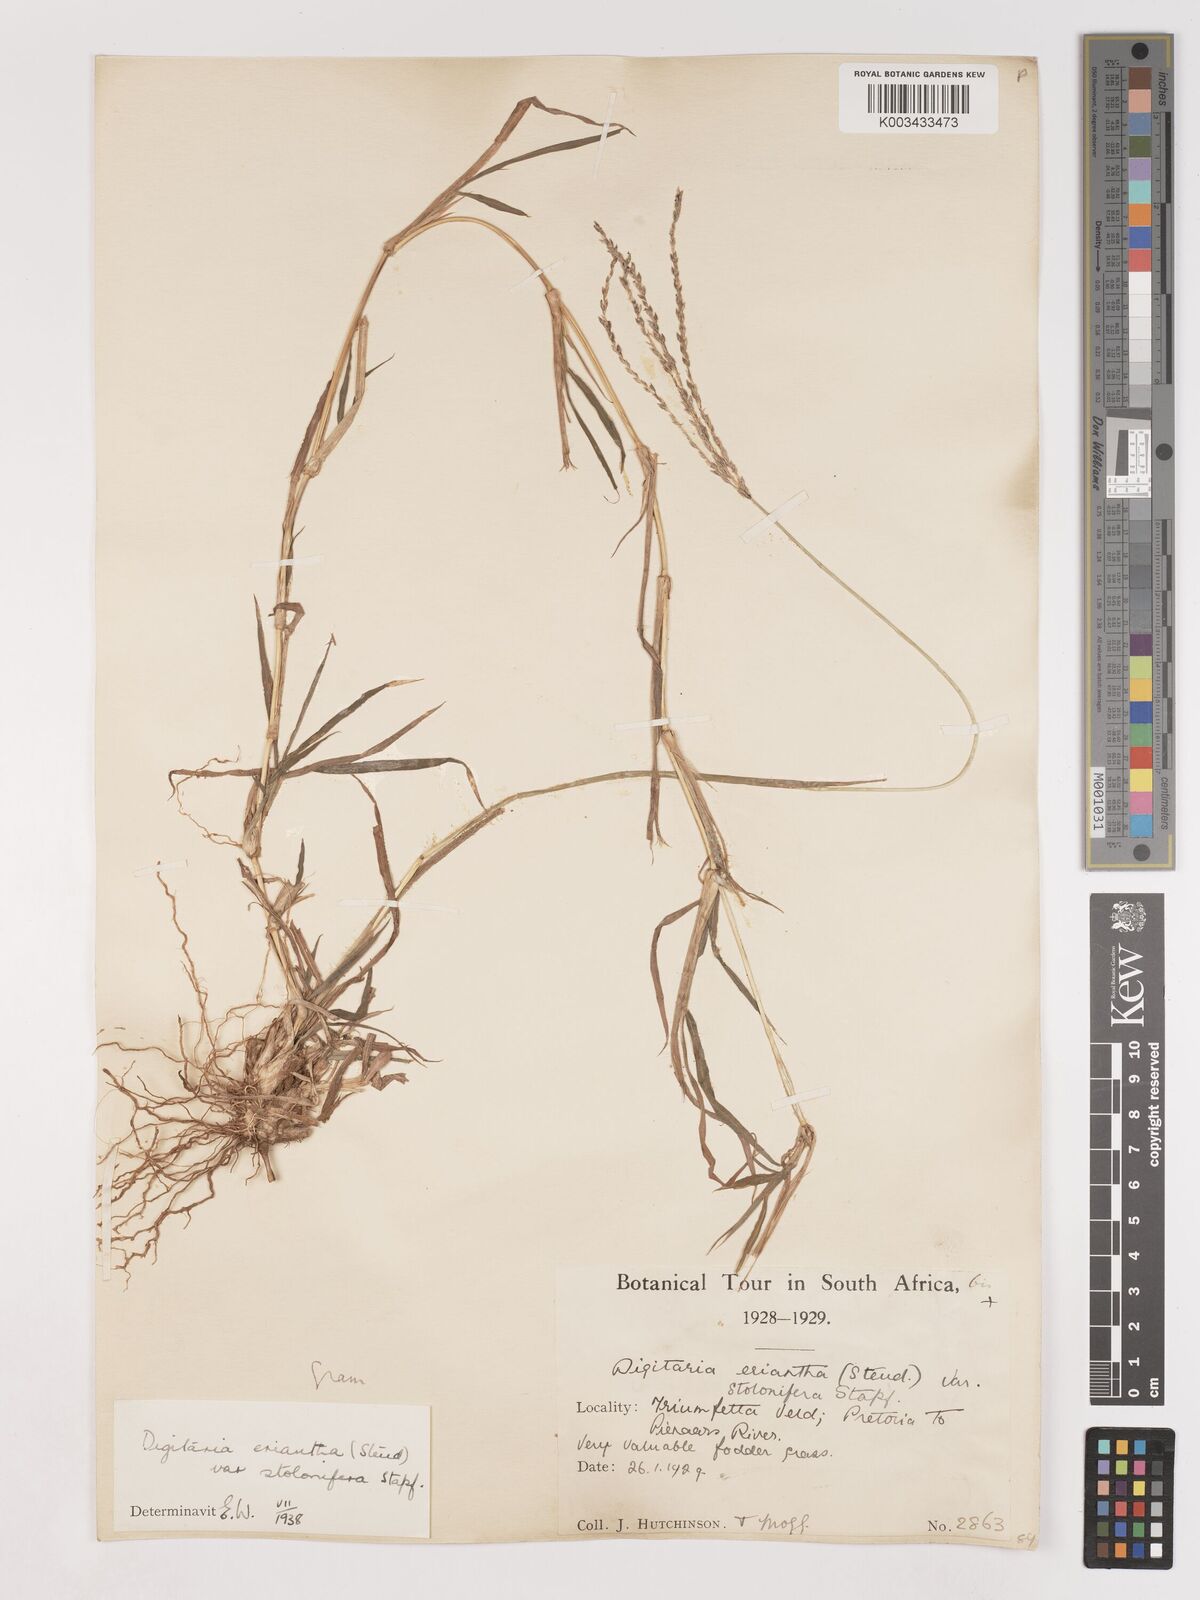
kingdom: Plantae
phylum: Tracheophyta
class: Liliopsida
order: Poales
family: Poaceae
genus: Digitaria
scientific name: Digitaria eriantha
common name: Digitgrass
